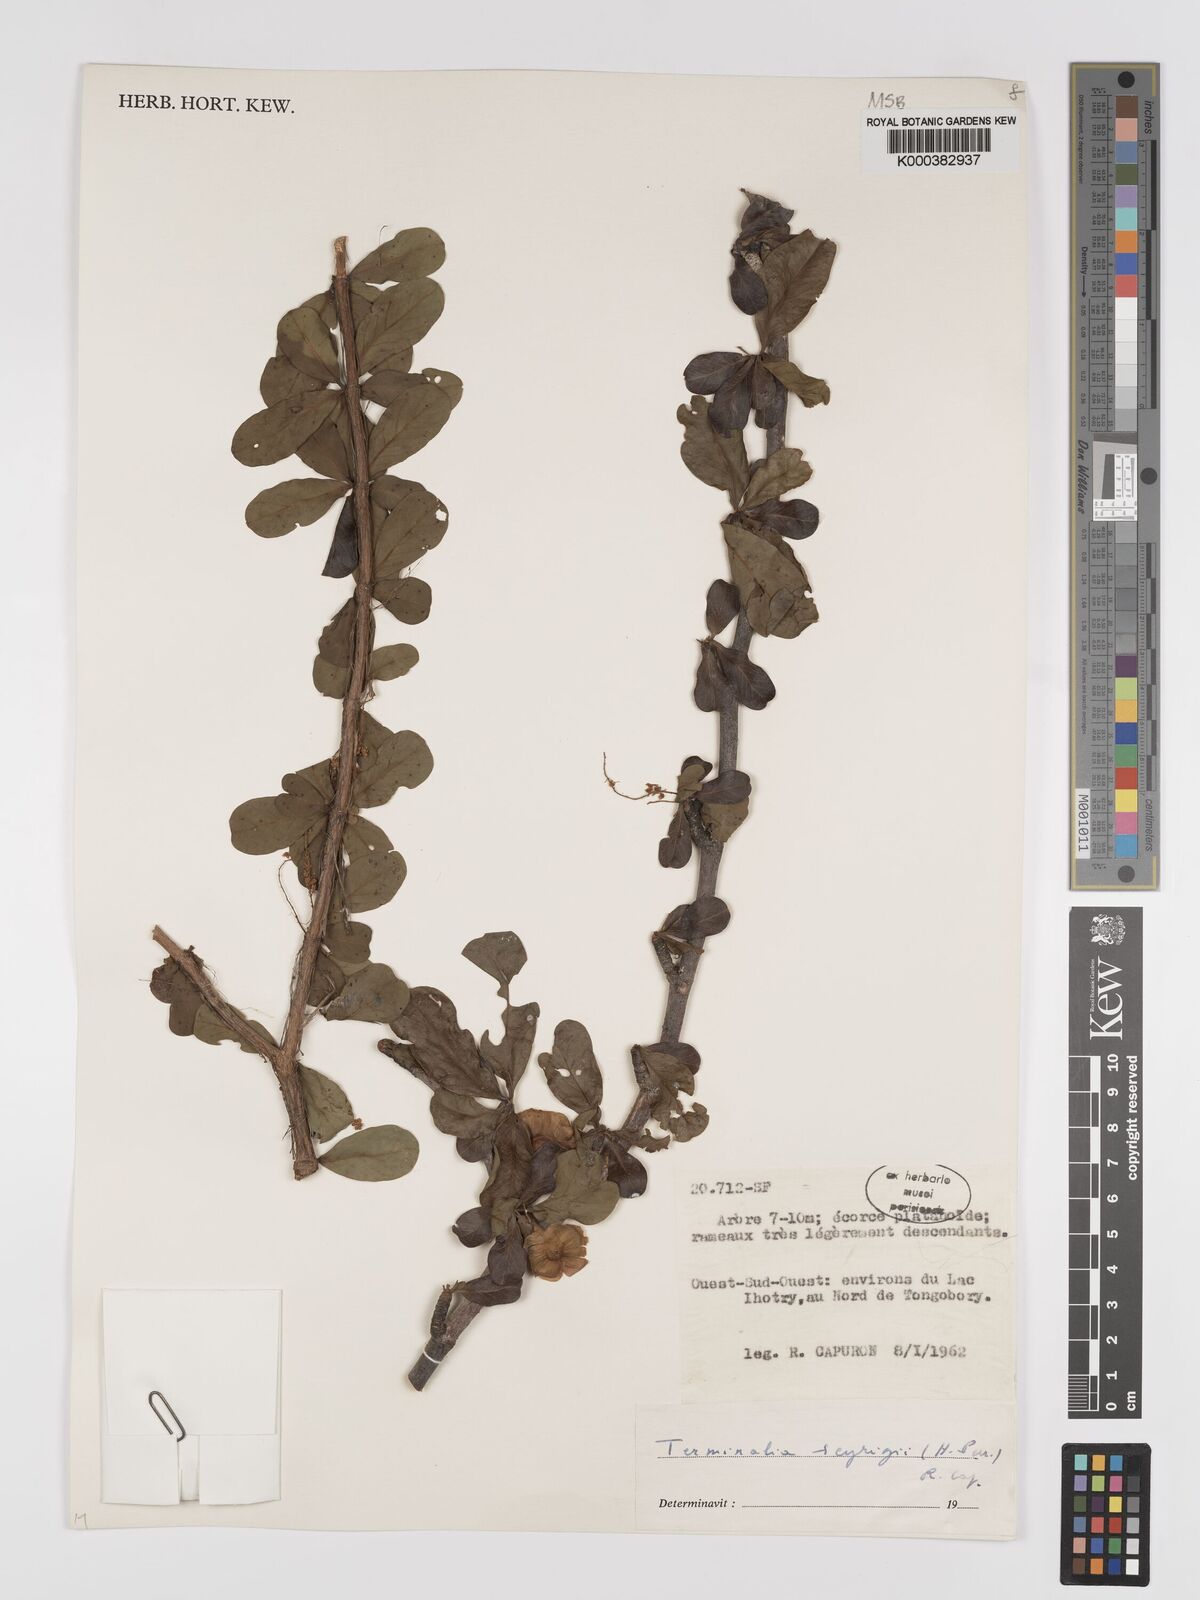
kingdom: Plantae
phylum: Tracheophyta
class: Magnoliopsida
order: Myrtales
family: Combretaceae
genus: Terminalia
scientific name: Terminalia seyrigii
